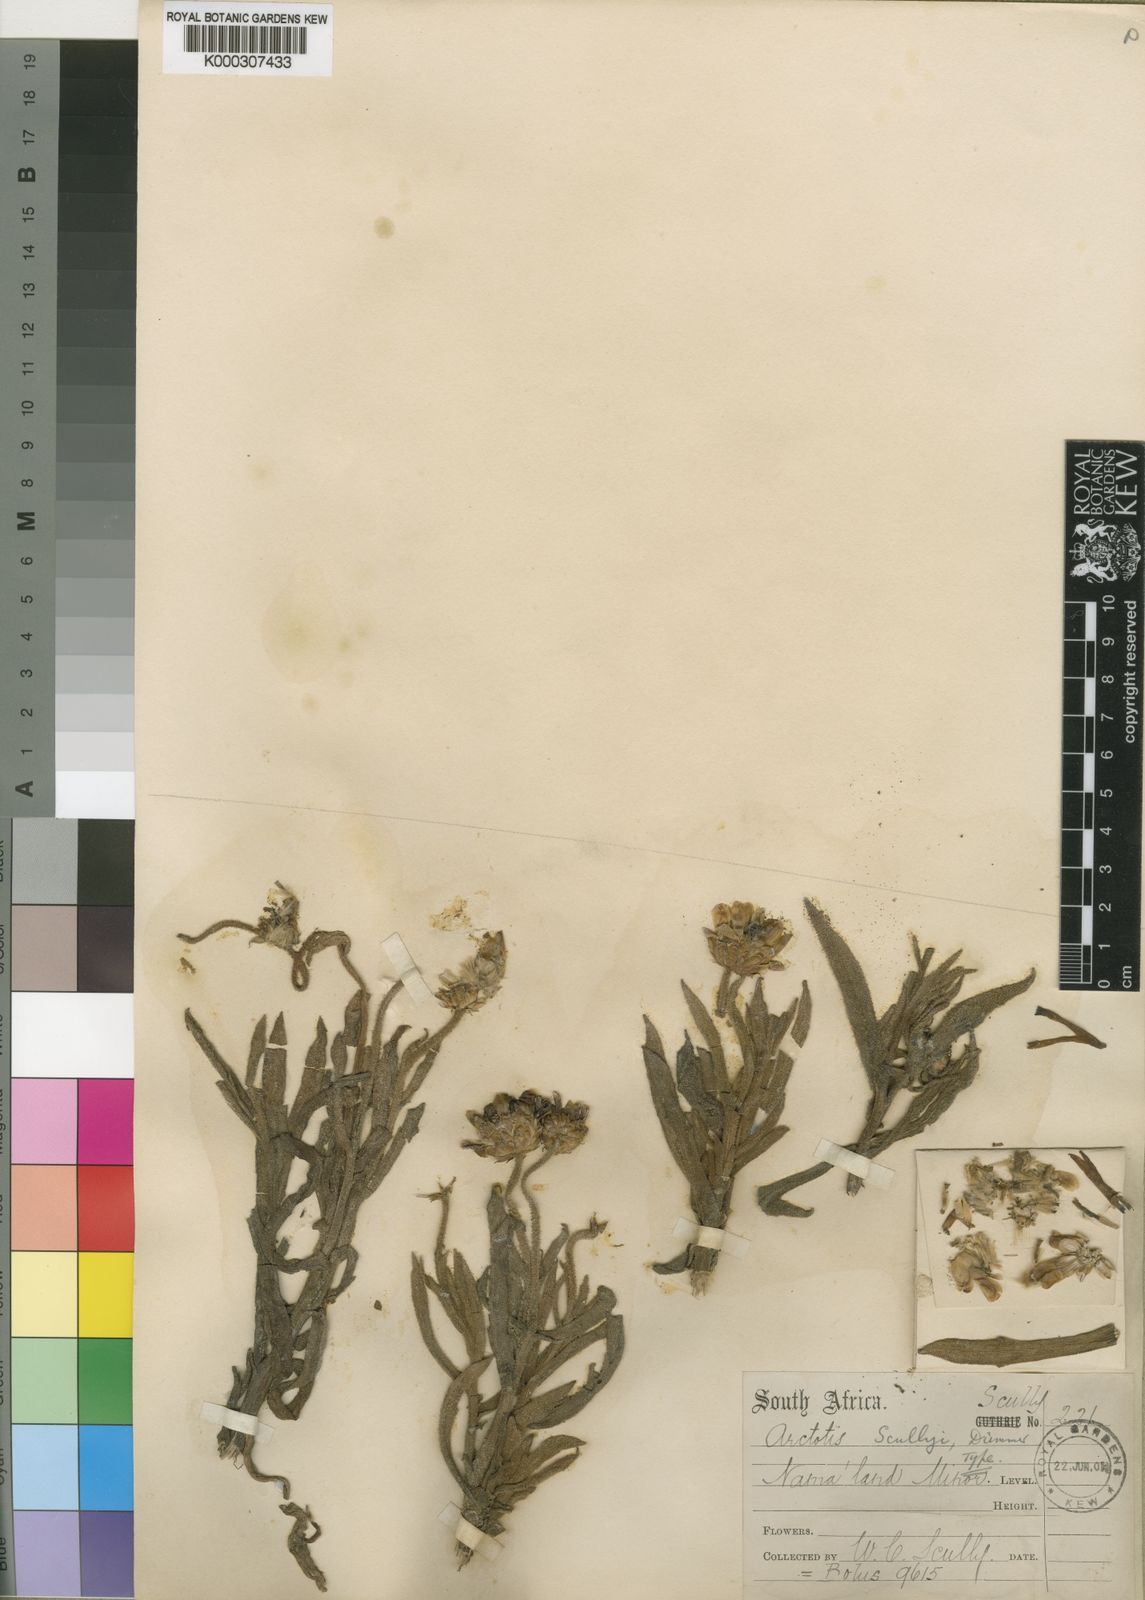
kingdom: Plantae
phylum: Tracheophyta
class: Magnoliopsida
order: Asterales
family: Asteraceae
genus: Arctotis
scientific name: Arctotis scullyi
